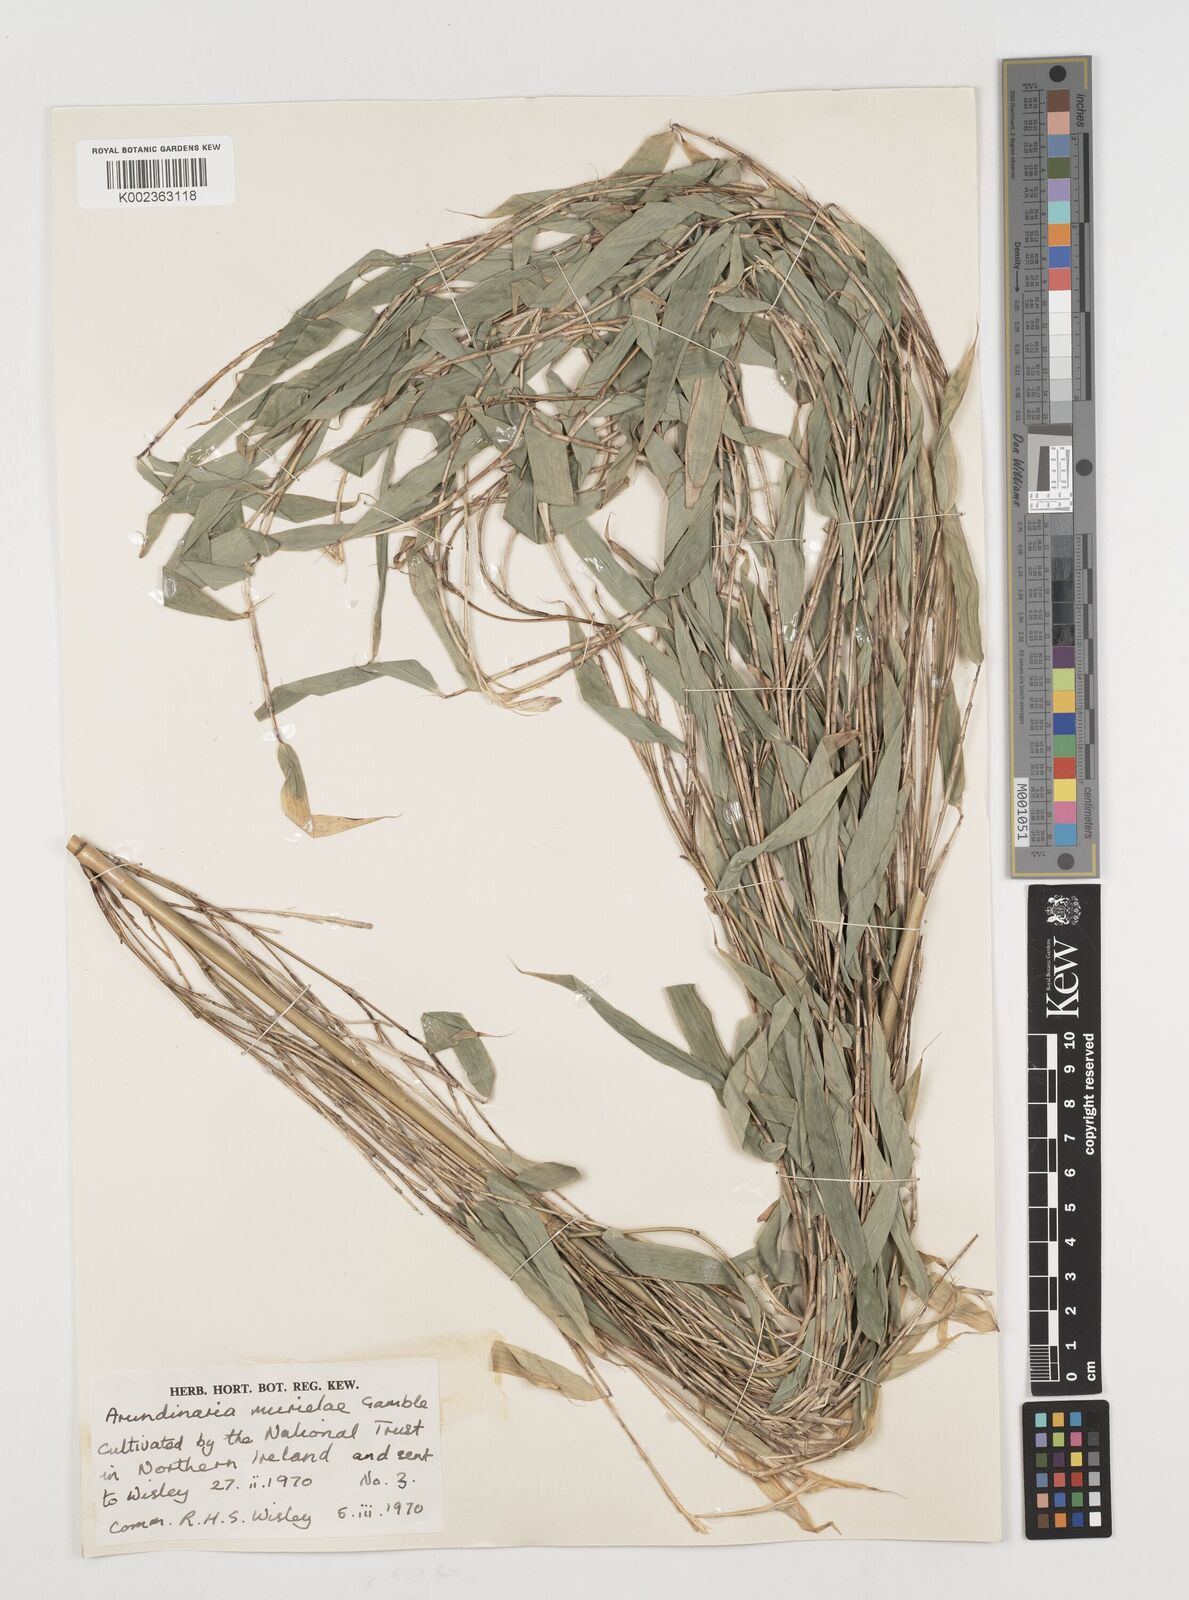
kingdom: Plantae
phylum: Tracheophyta
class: Liliopsida
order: Poales
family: Poaceae
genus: Fargesia
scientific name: Fargesia murielae
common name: Umbrella bamboo
